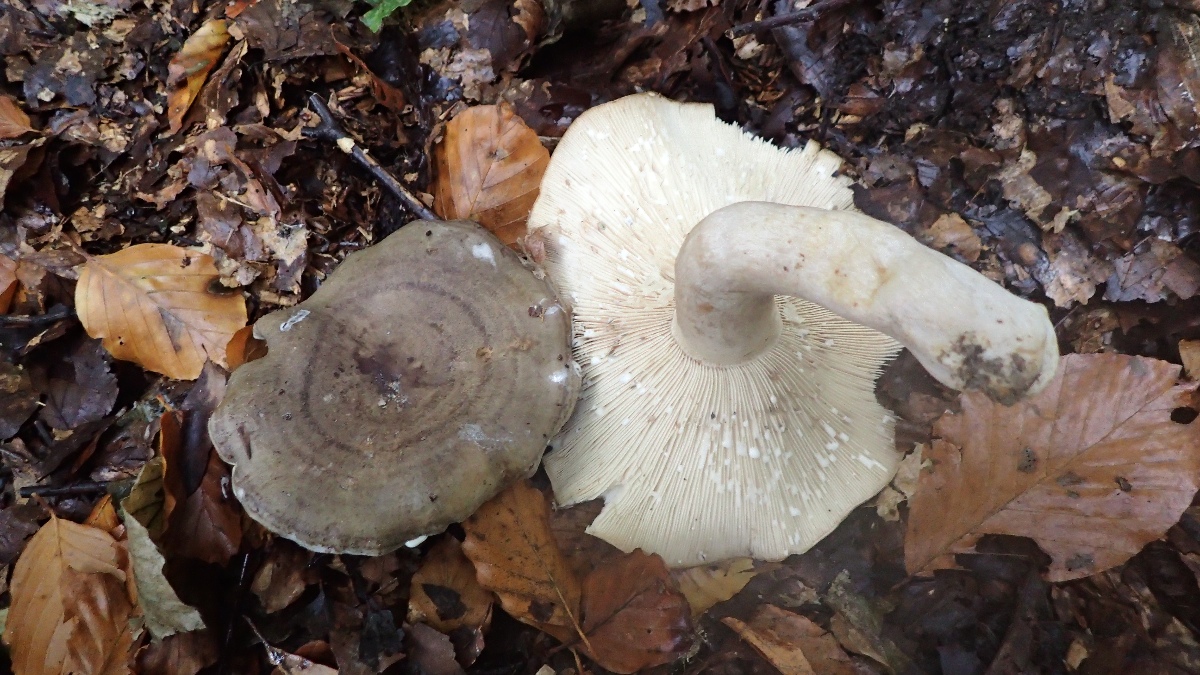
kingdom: Fungi
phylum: Basidiomycota
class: Agaricomycetes
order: Russulales
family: Russulaceae
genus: Lactarius
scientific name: Lactarius fluens
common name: lysrandet mælkehat
